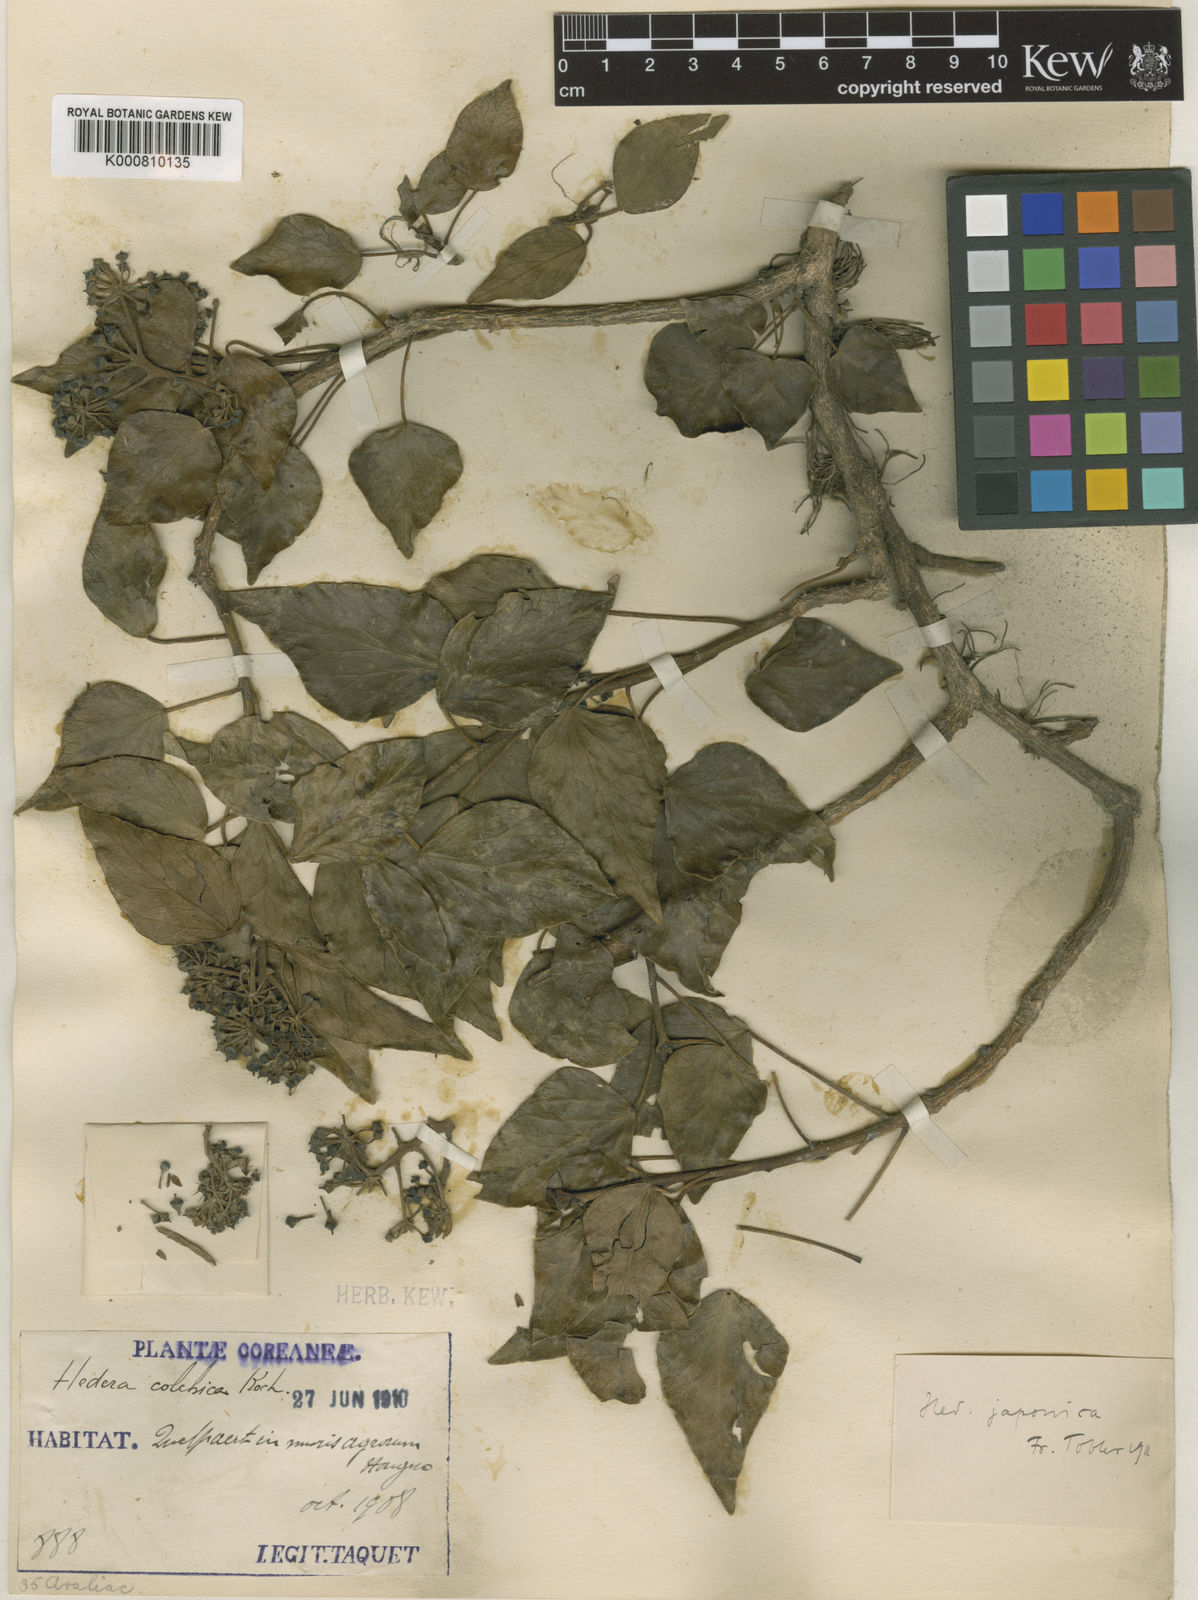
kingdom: Plantae
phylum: Tracheophyta
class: Magnoliopsida
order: Apiales
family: Araliaceae
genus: Hedera
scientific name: Hedera rhombea
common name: Japanese ivy
